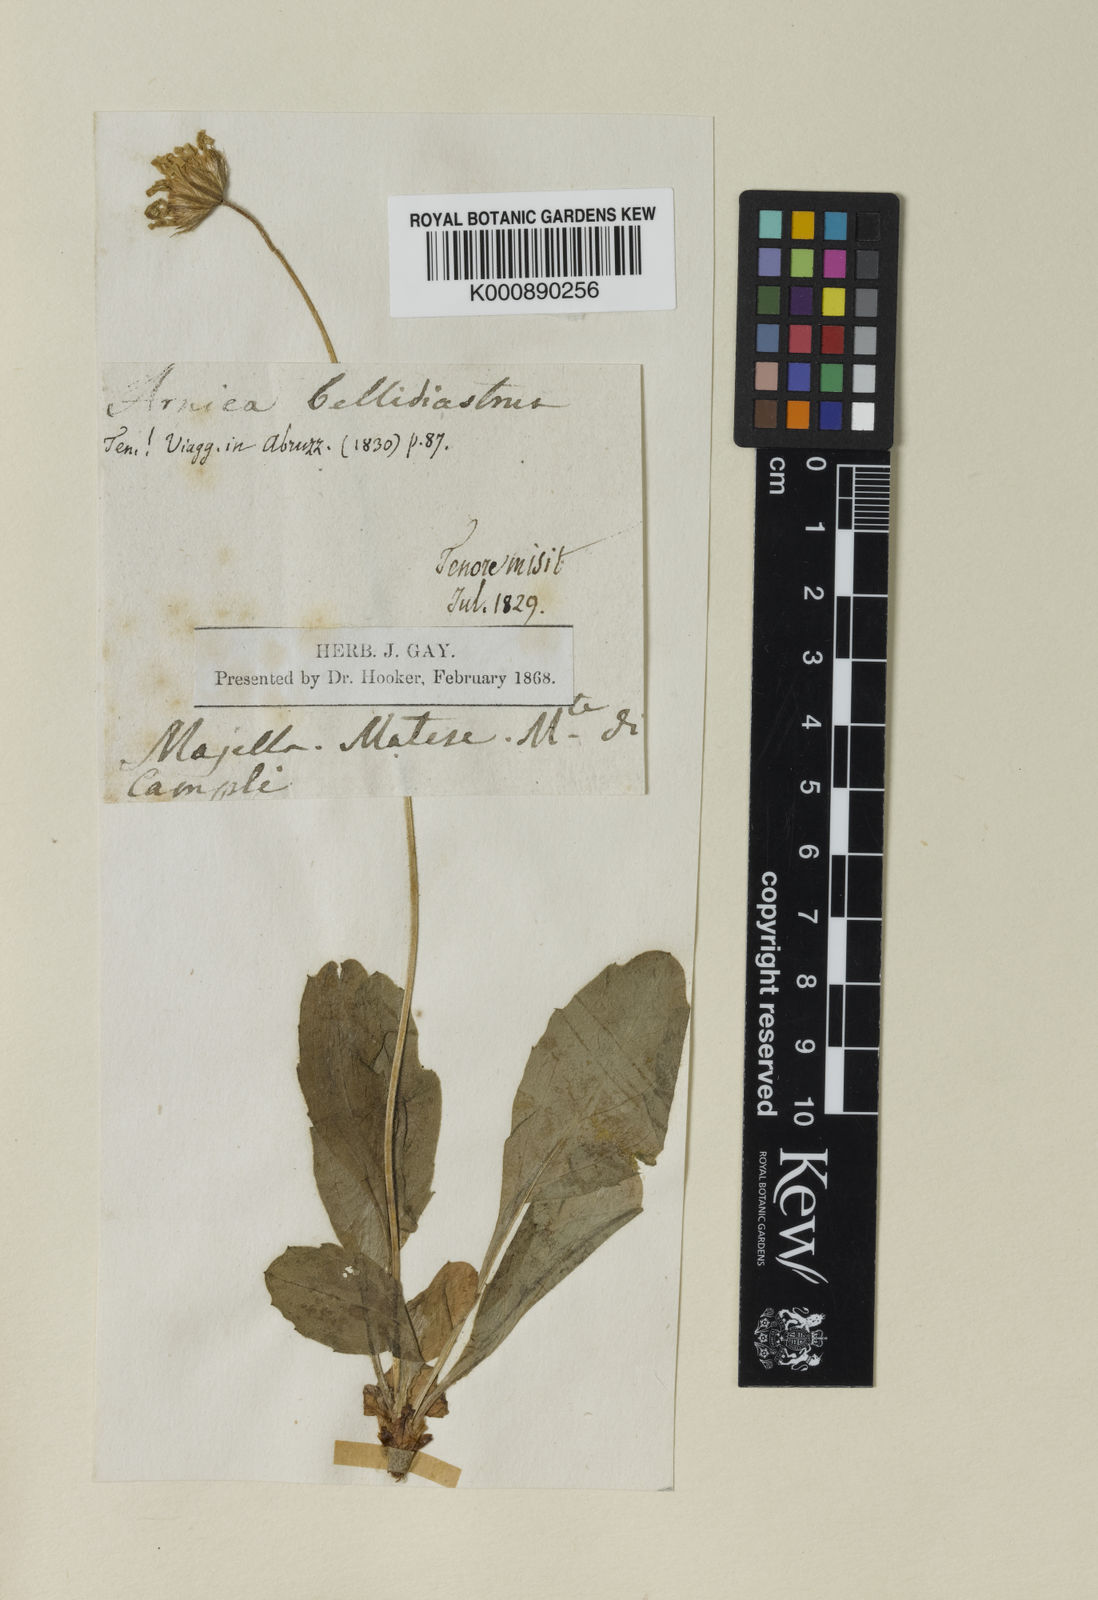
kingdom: Plantae
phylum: Tracheophyta
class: Magnoliopsida
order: Asterales
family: Asteraceae
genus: Bellidiastrum
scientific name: Bellidiastrum michelii
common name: Daisy-star aster
